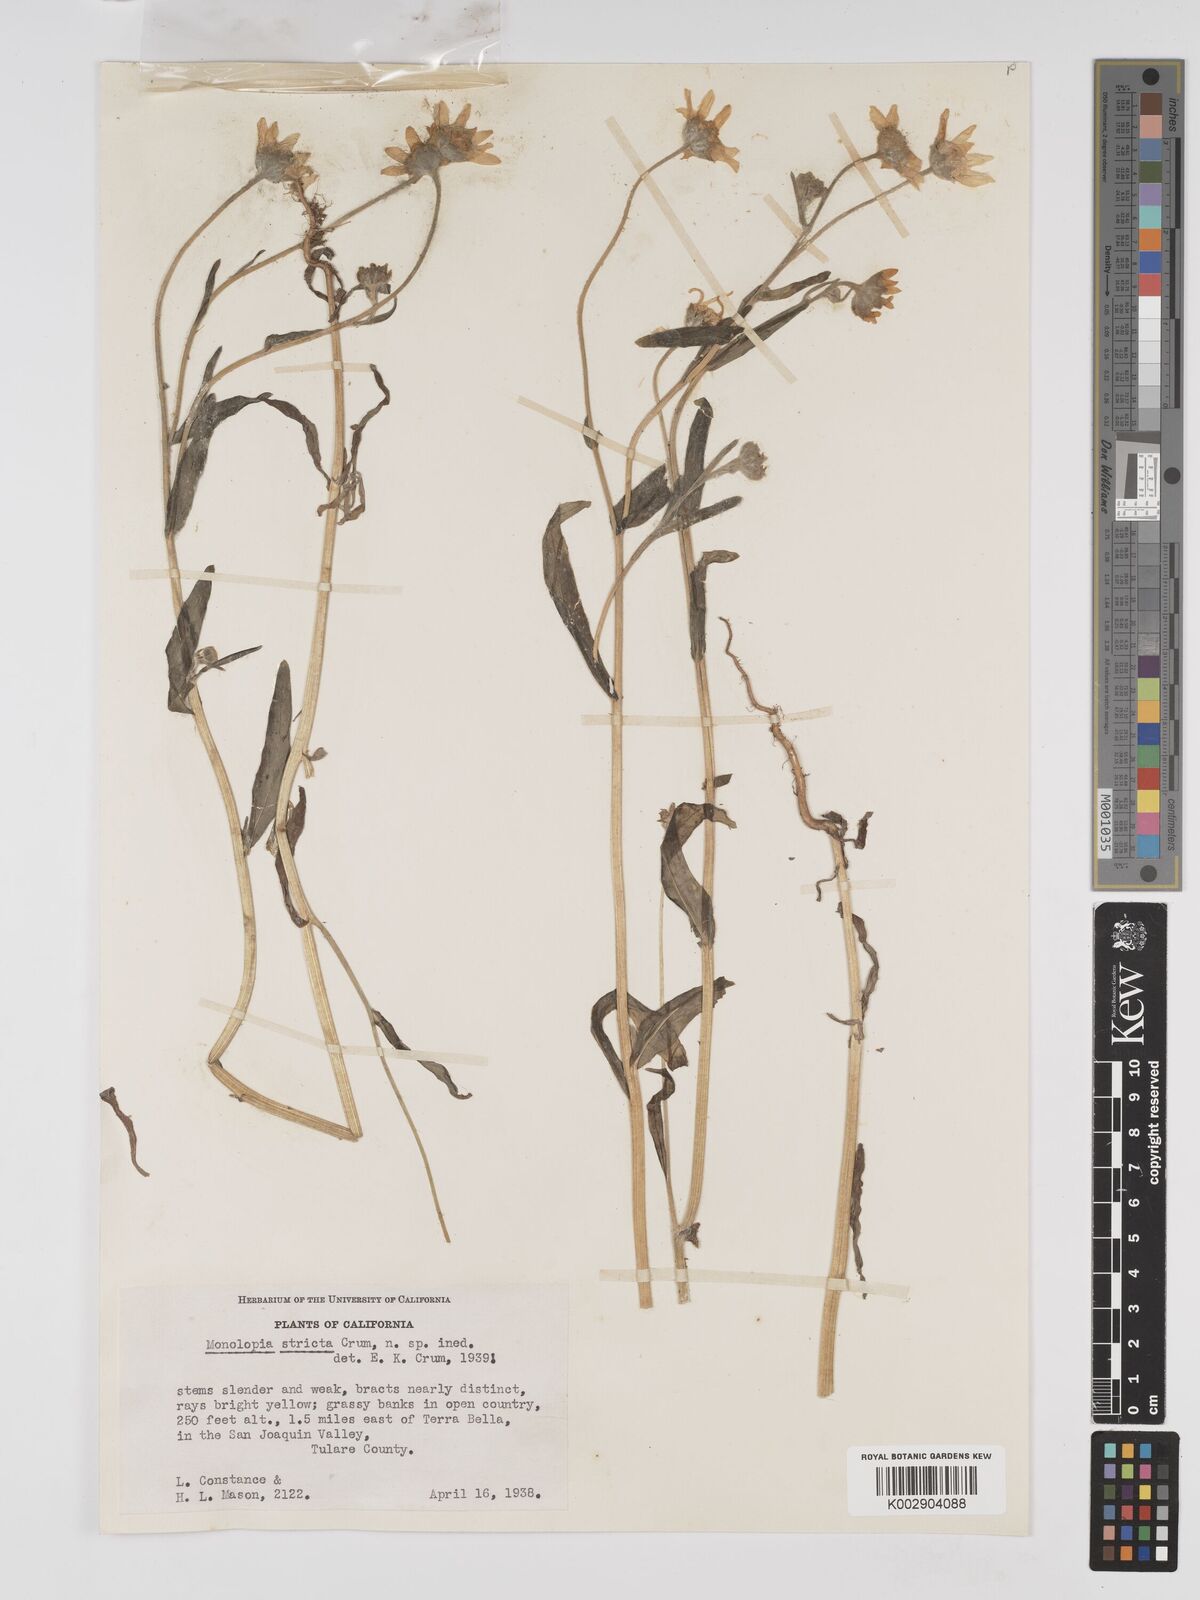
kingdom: Plantae
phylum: Tracheophyta
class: Magnoliopsida
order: Asterales
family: Asteraceae
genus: Monolopia
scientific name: Monolopia stricta
